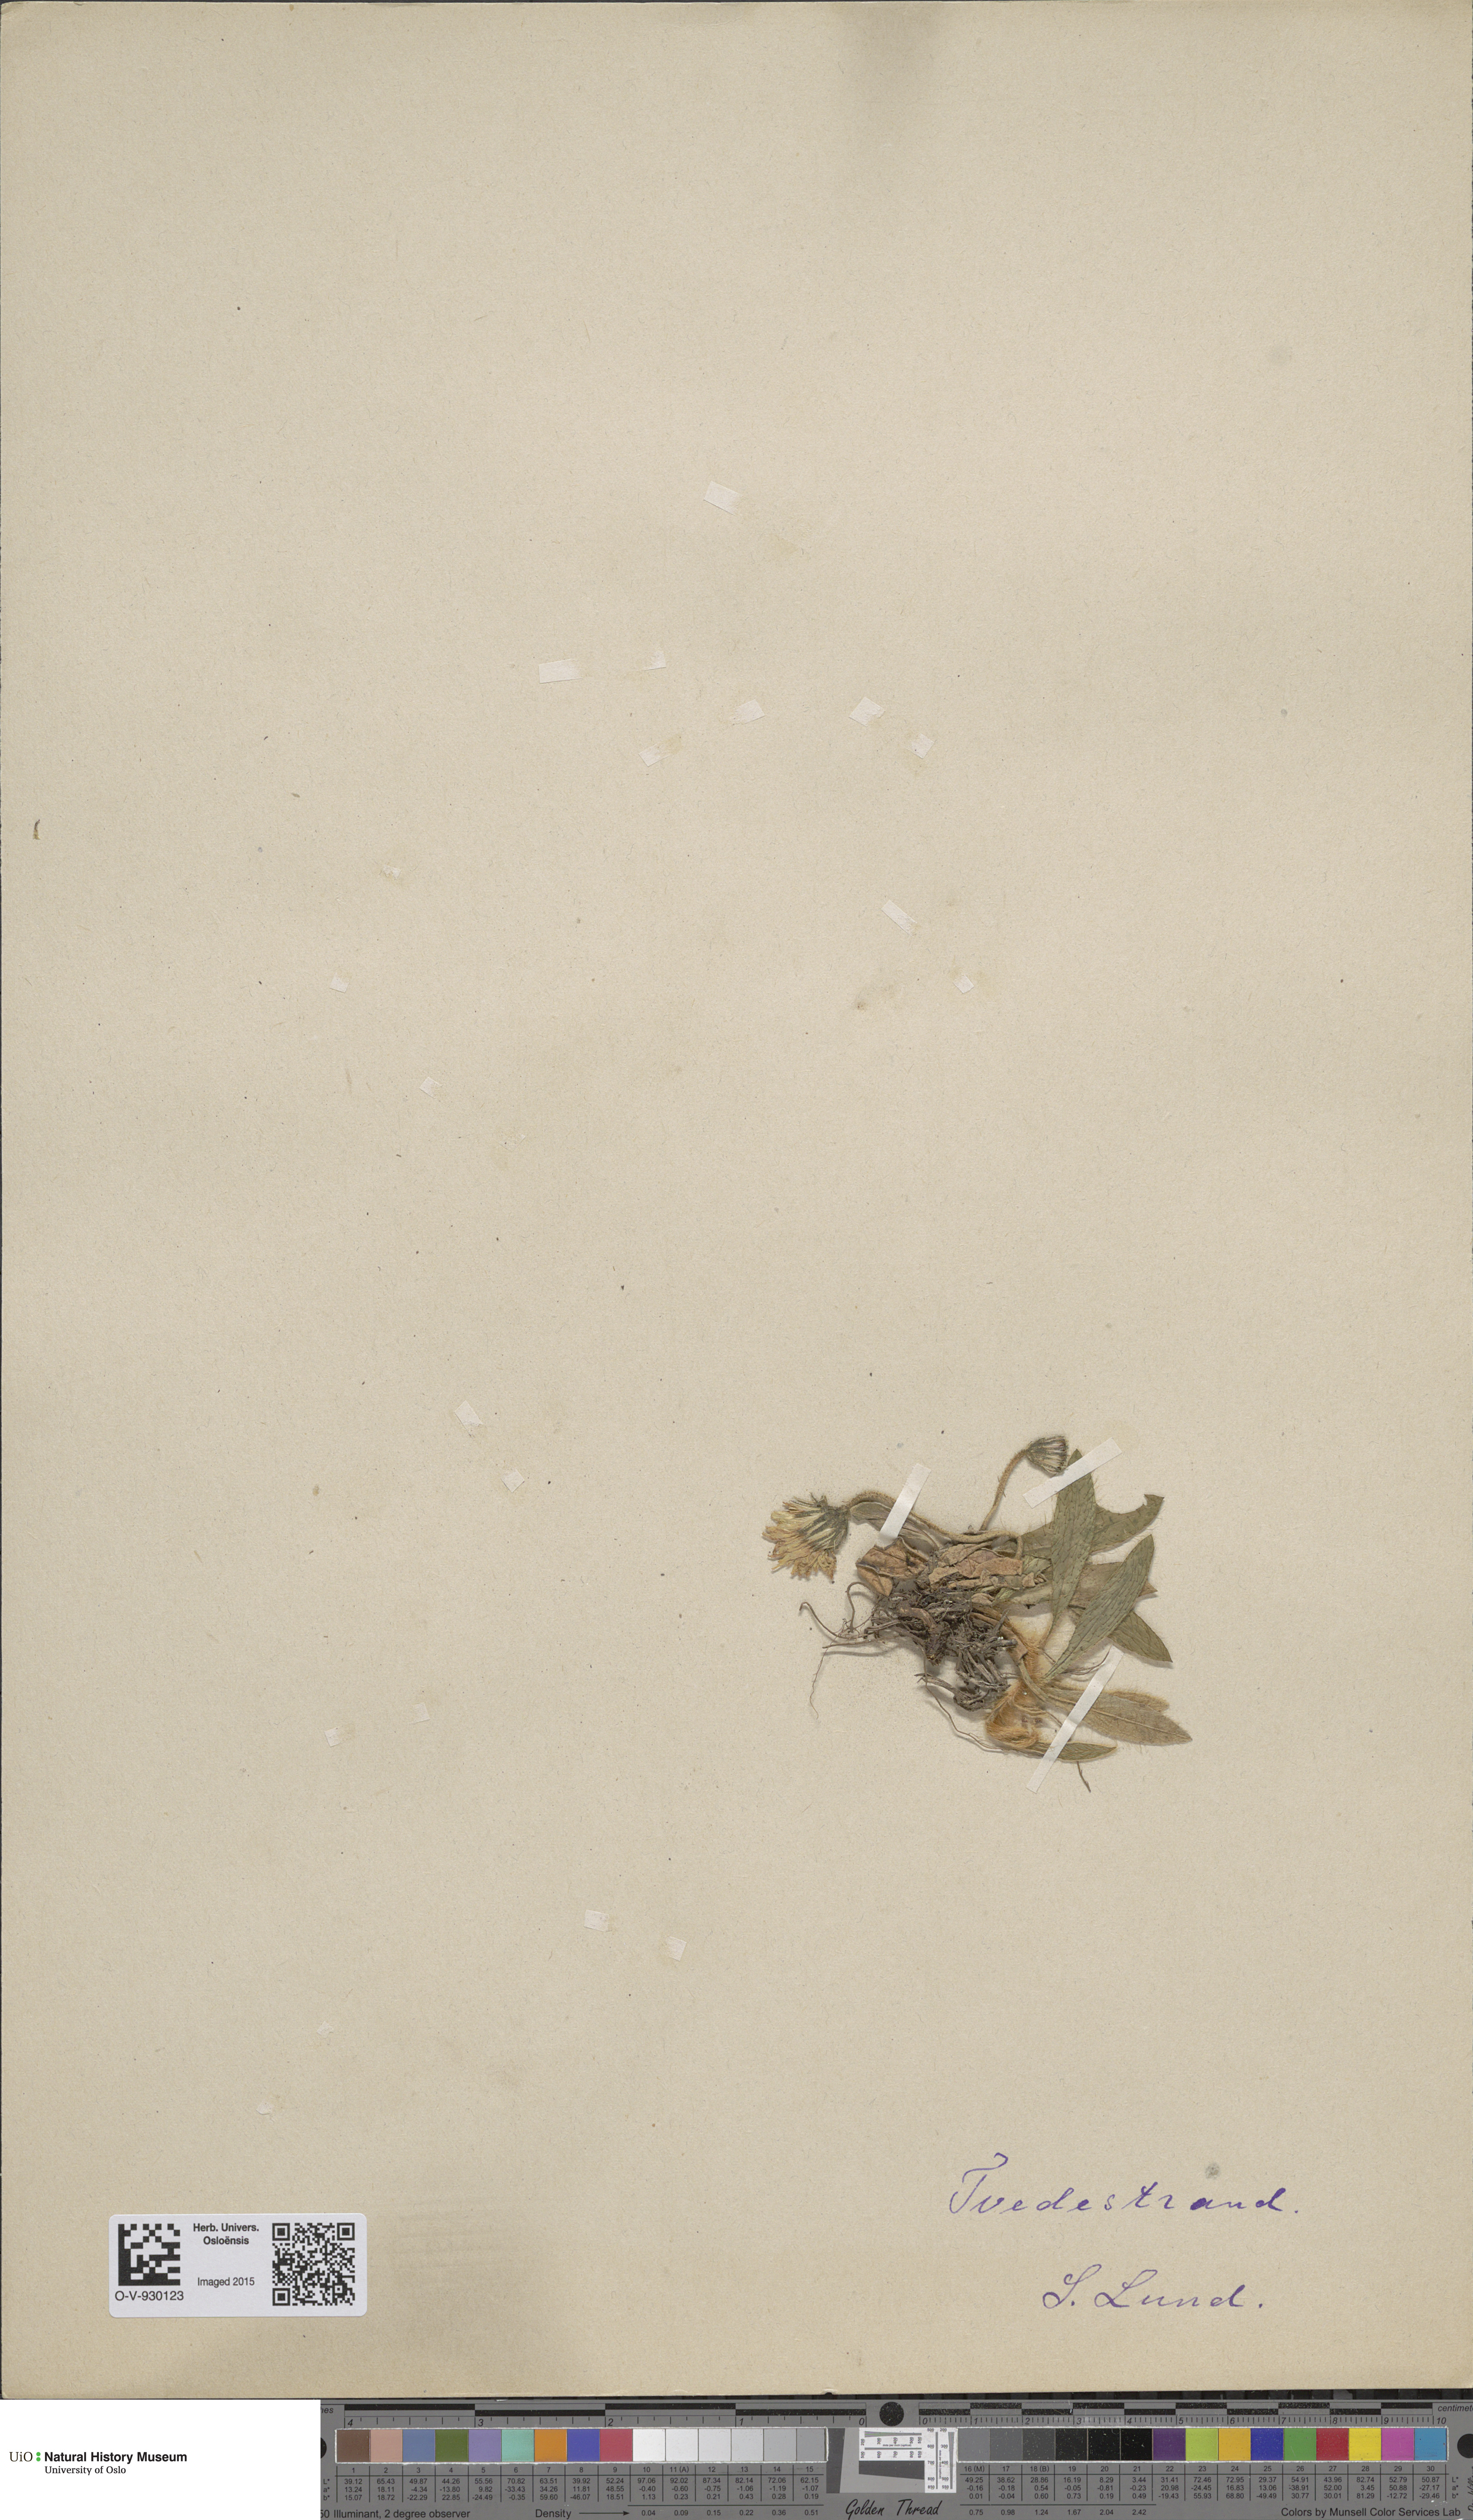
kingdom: Plantae
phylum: Tracheophyta
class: Magnoliopsida
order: Asterales
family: Asteraceae
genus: Pilosella
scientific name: Pilosella officinarum
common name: Mouse-ear hawkweed
